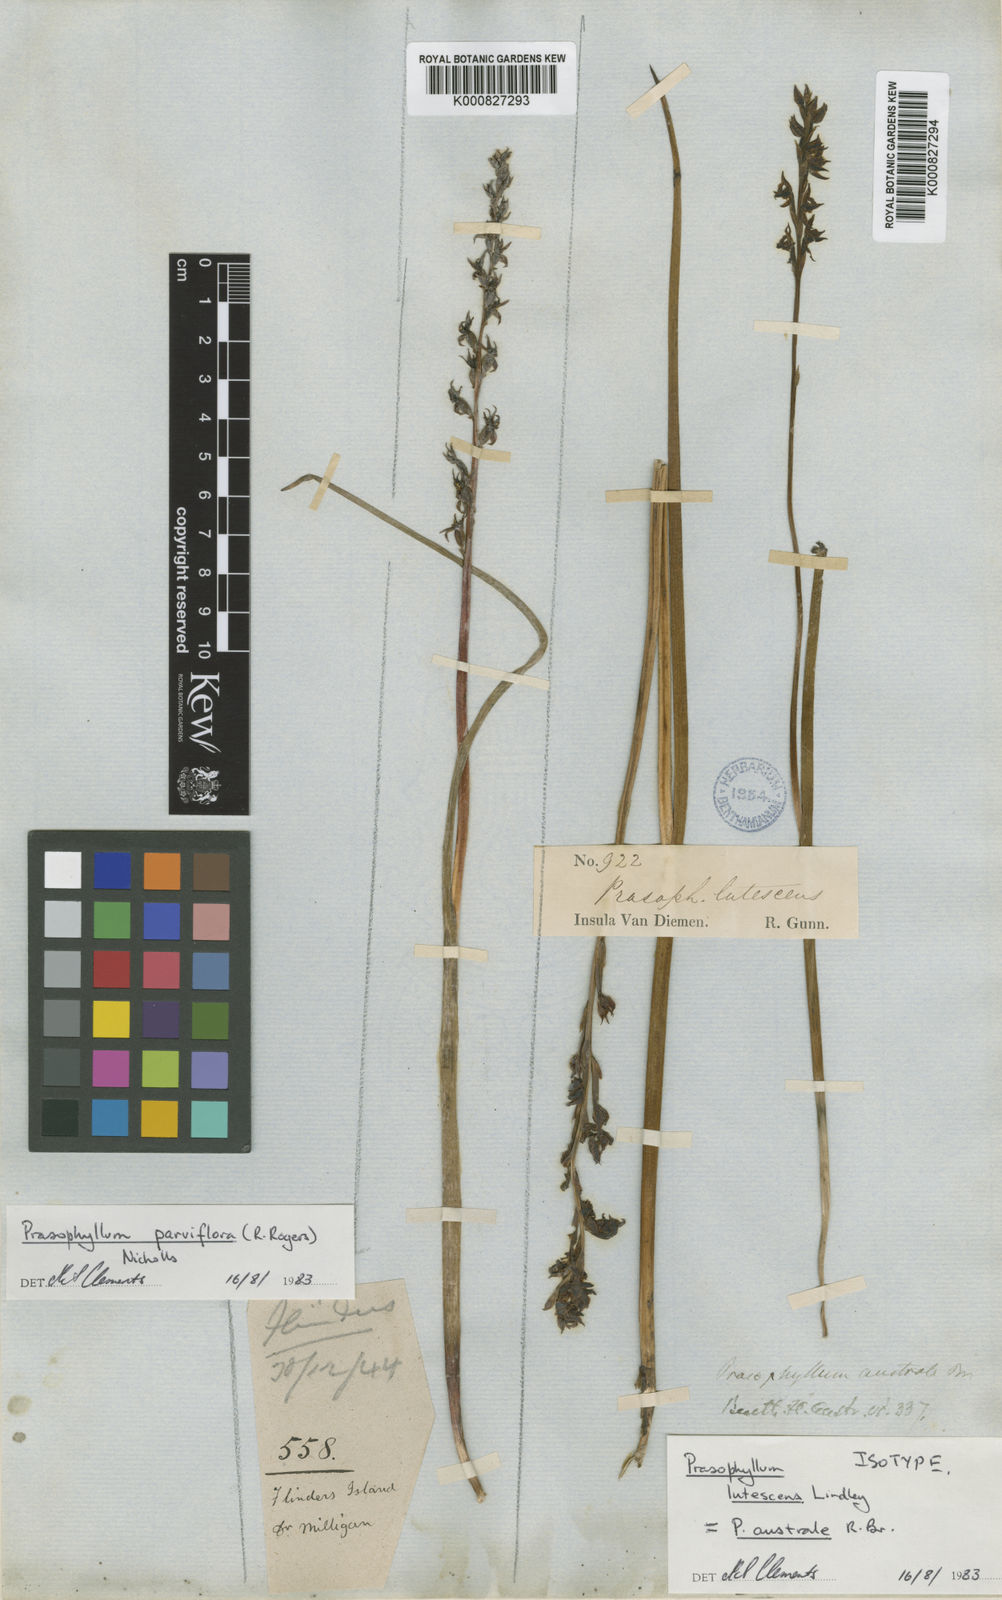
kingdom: Plantae
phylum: Tracheophyta
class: Liliopsida
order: Asparagales
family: Orchidaceae
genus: Prasophyllum
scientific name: Prasophyllum australe
